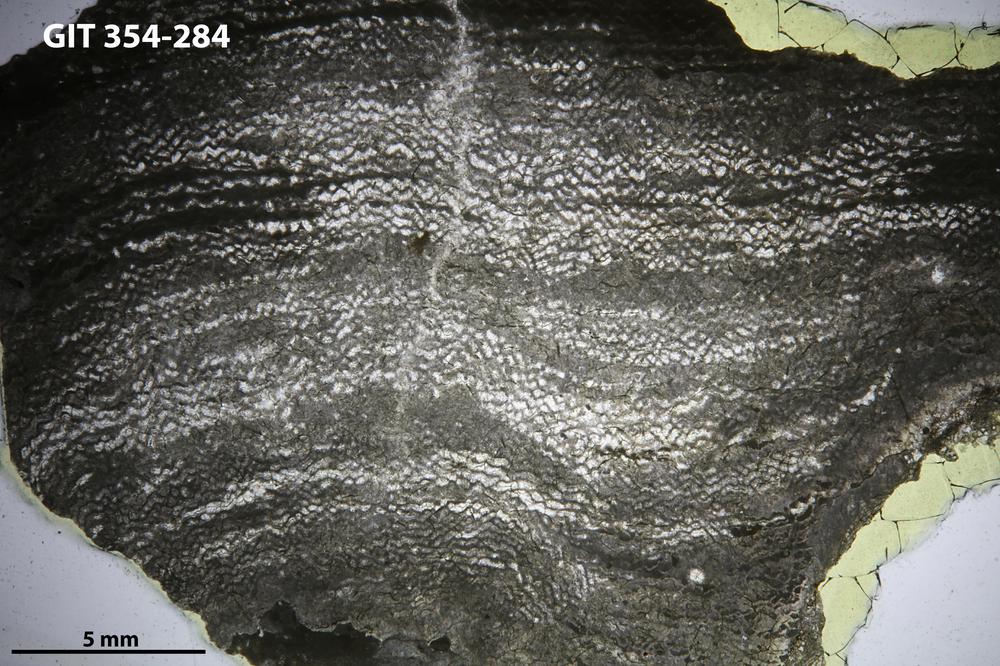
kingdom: Animalia
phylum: Porifera
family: Ecclimadictyidae
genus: Ecclimadictyon
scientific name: Ecclimadictyon porkuni
